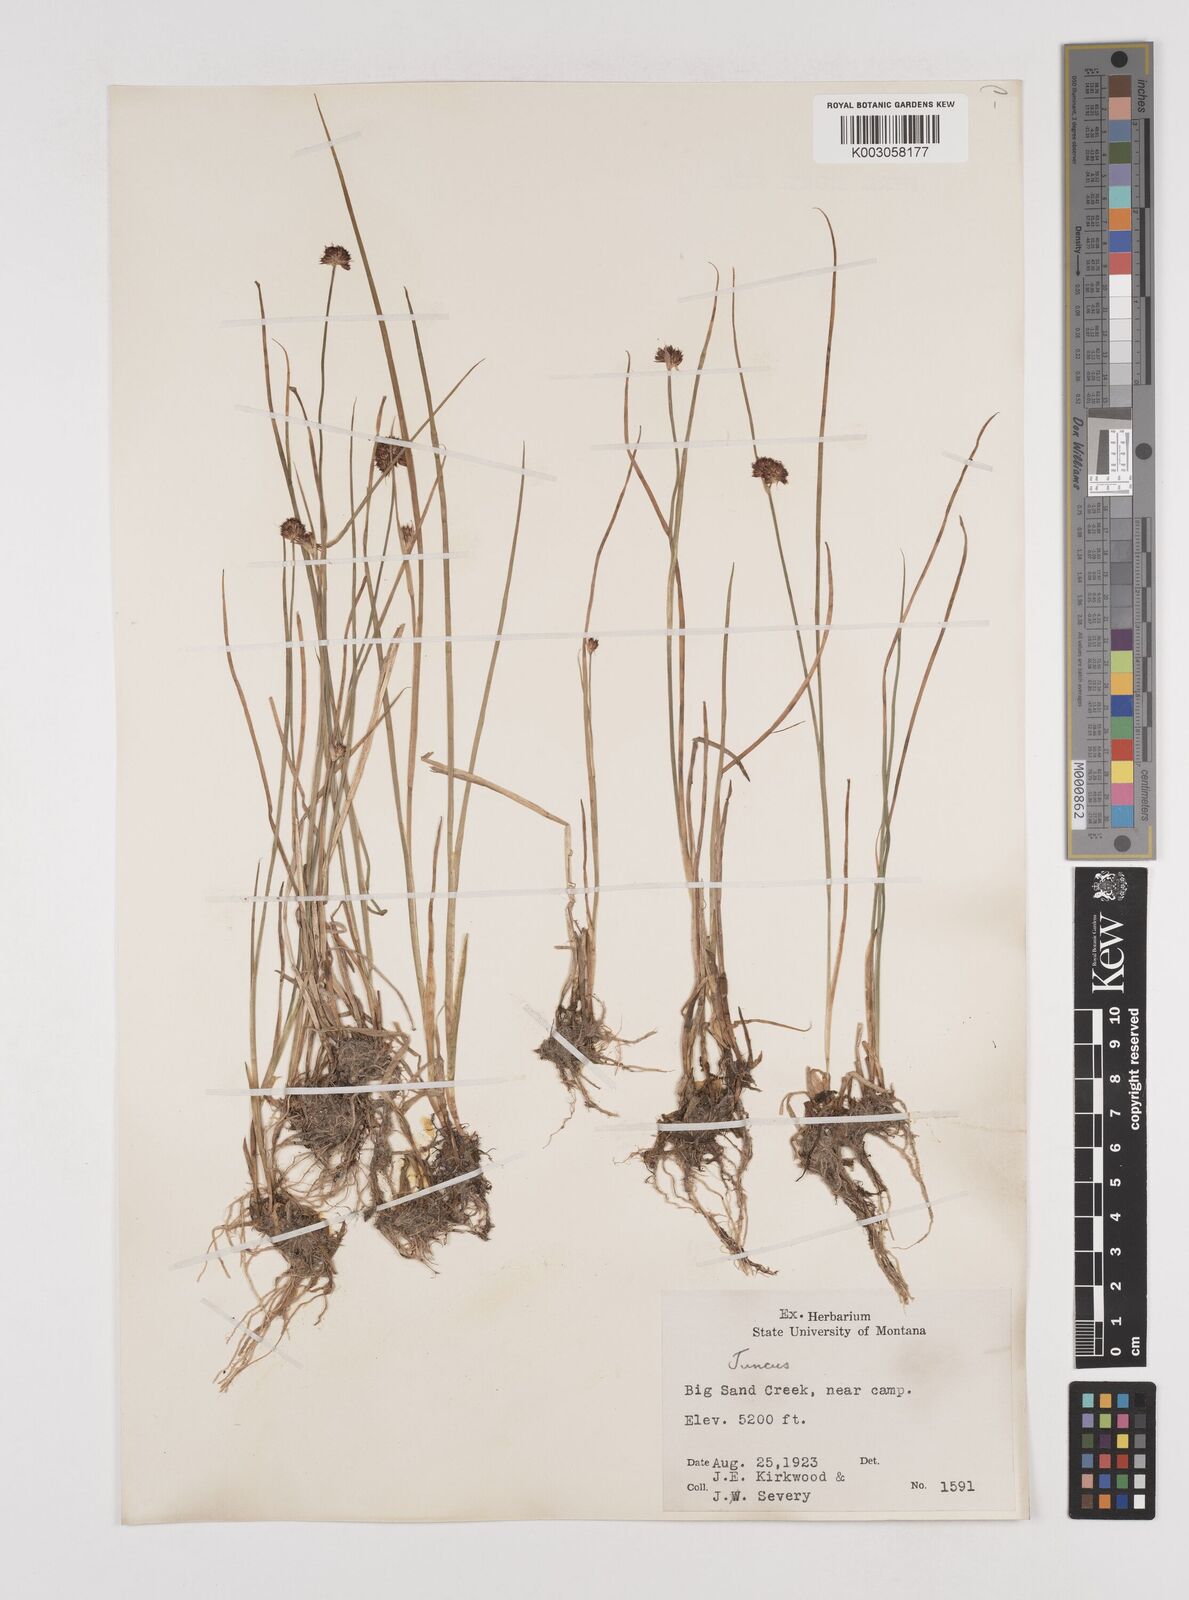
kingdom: Plantae
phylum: Tracheophyta
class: Liliopsida
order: Poales
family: Juncaceae
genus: Juncus
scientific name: Juncus
